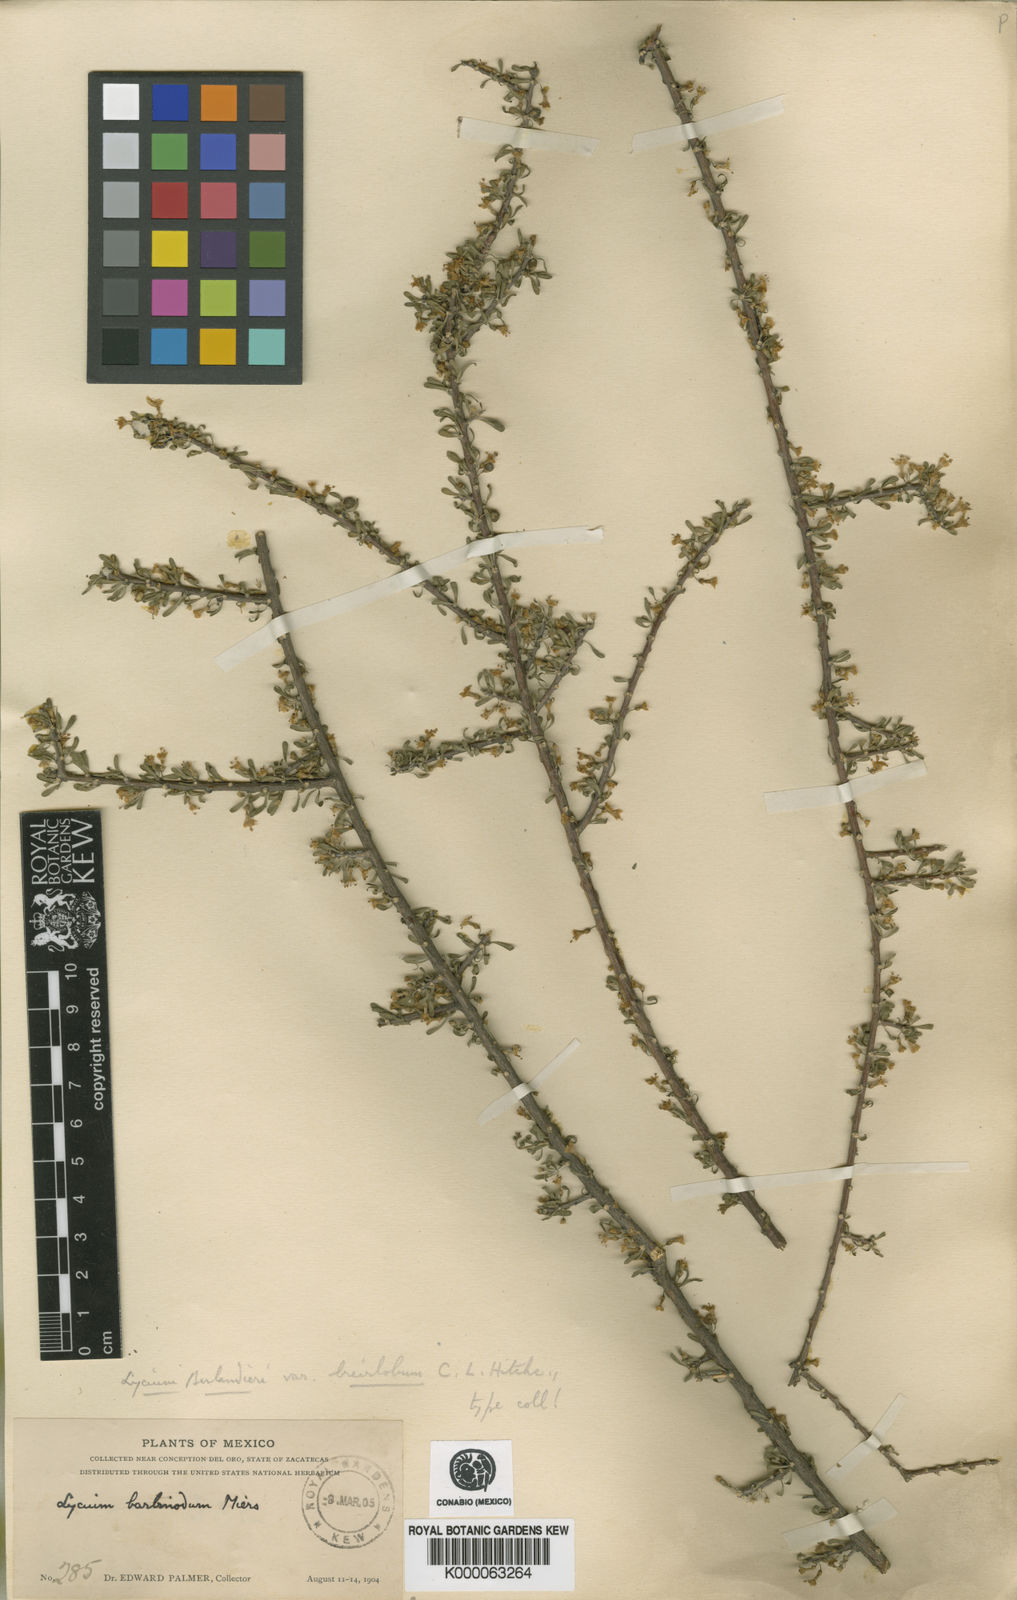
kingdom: Plantae
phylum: Tracheophyta
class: Magnoliopsida
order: Solanales
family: Solanaceae
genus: Lycium
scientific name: Lycium berlandieri
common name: Berlandier wolfberry
